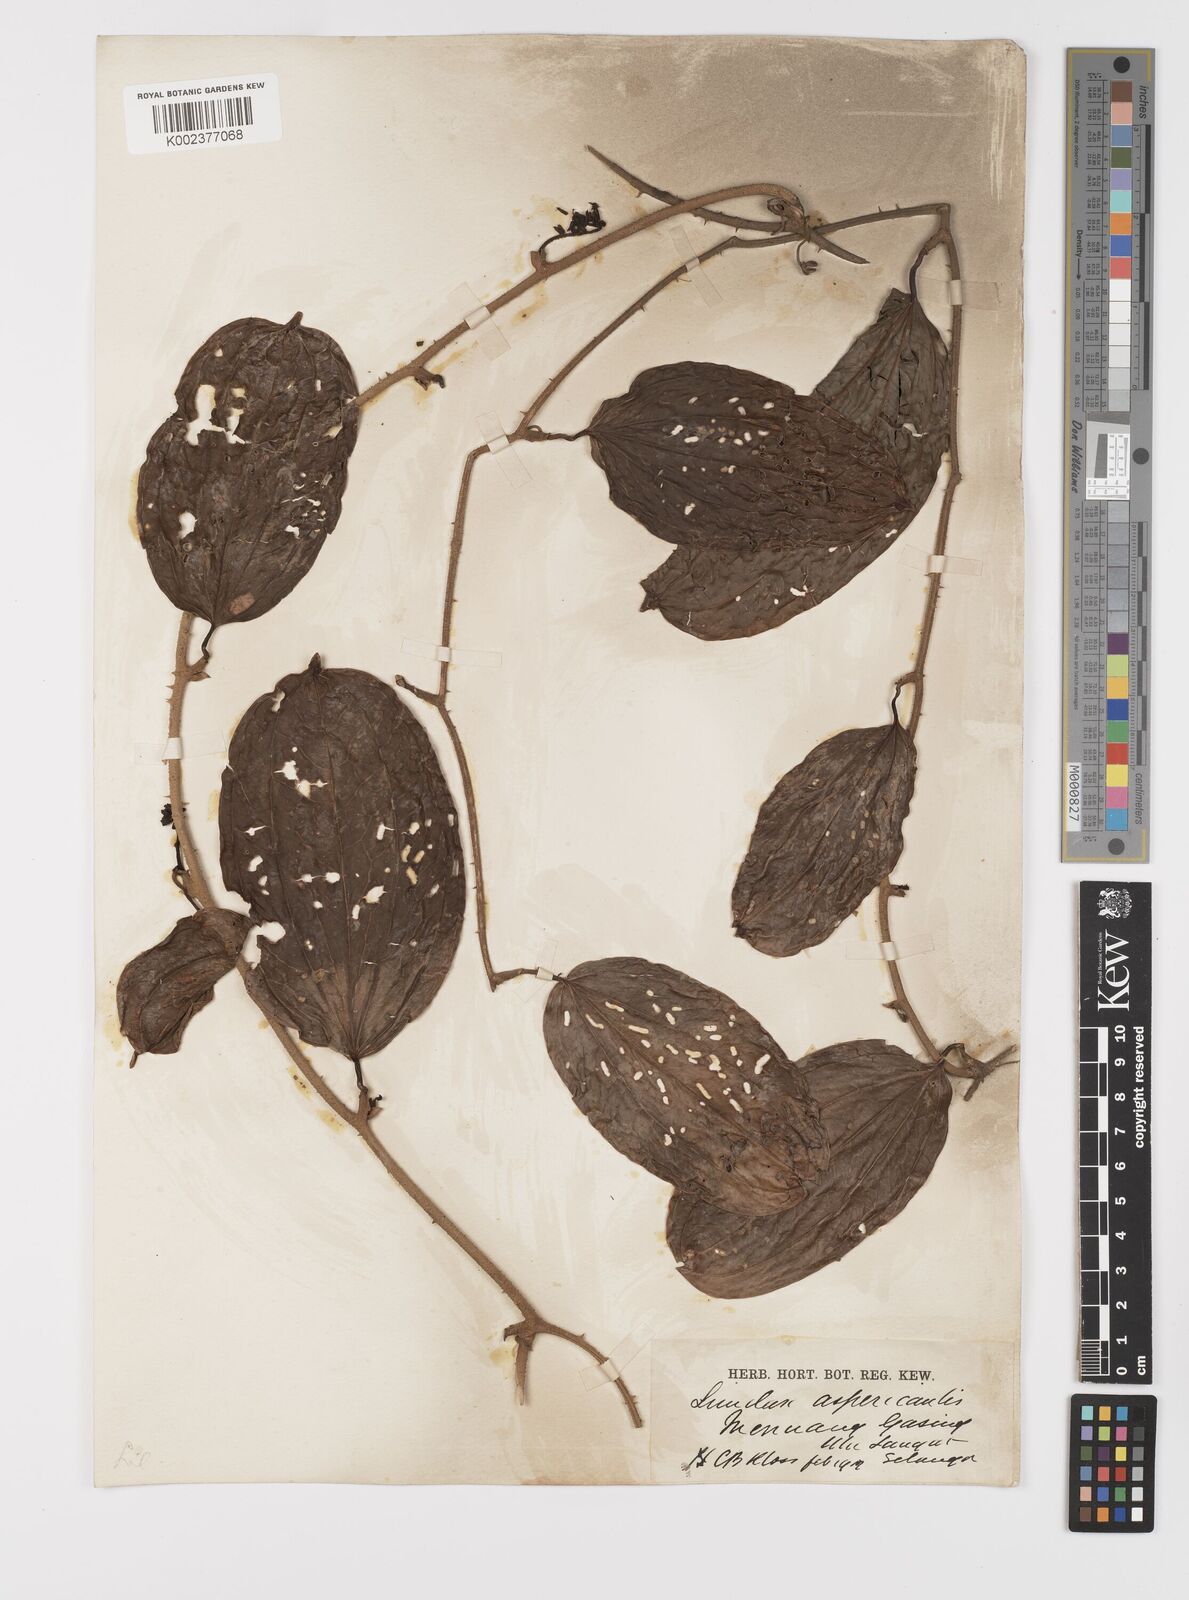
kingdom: Plantae
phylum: Tracheophyta
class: Liliopsida
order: Liliales
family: Smilacaceae
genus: Smilax
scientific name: Smilax aspericaulis
